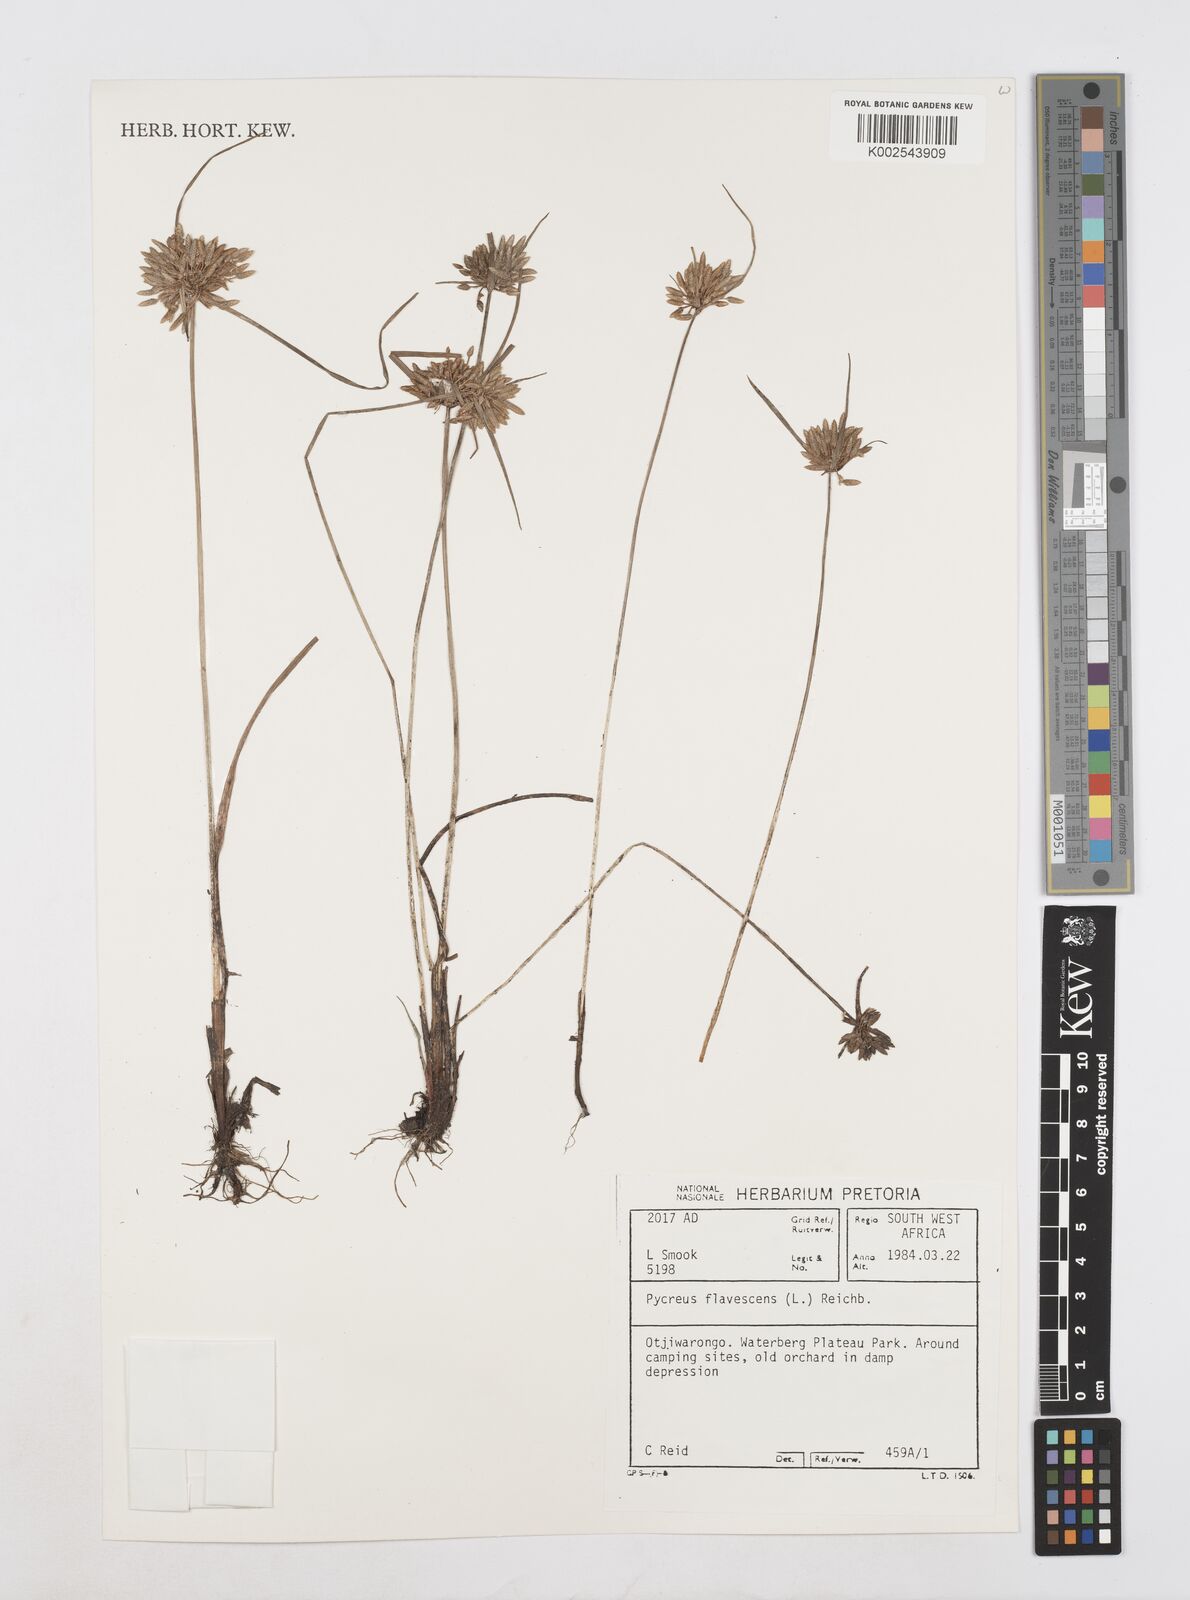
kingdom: Plantae
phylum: Tracheophyta
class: Liliopsida
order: Poales
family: Cyperaceae
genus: Cyperus
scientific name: Cyperus flavescens
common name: Yellow galingale
